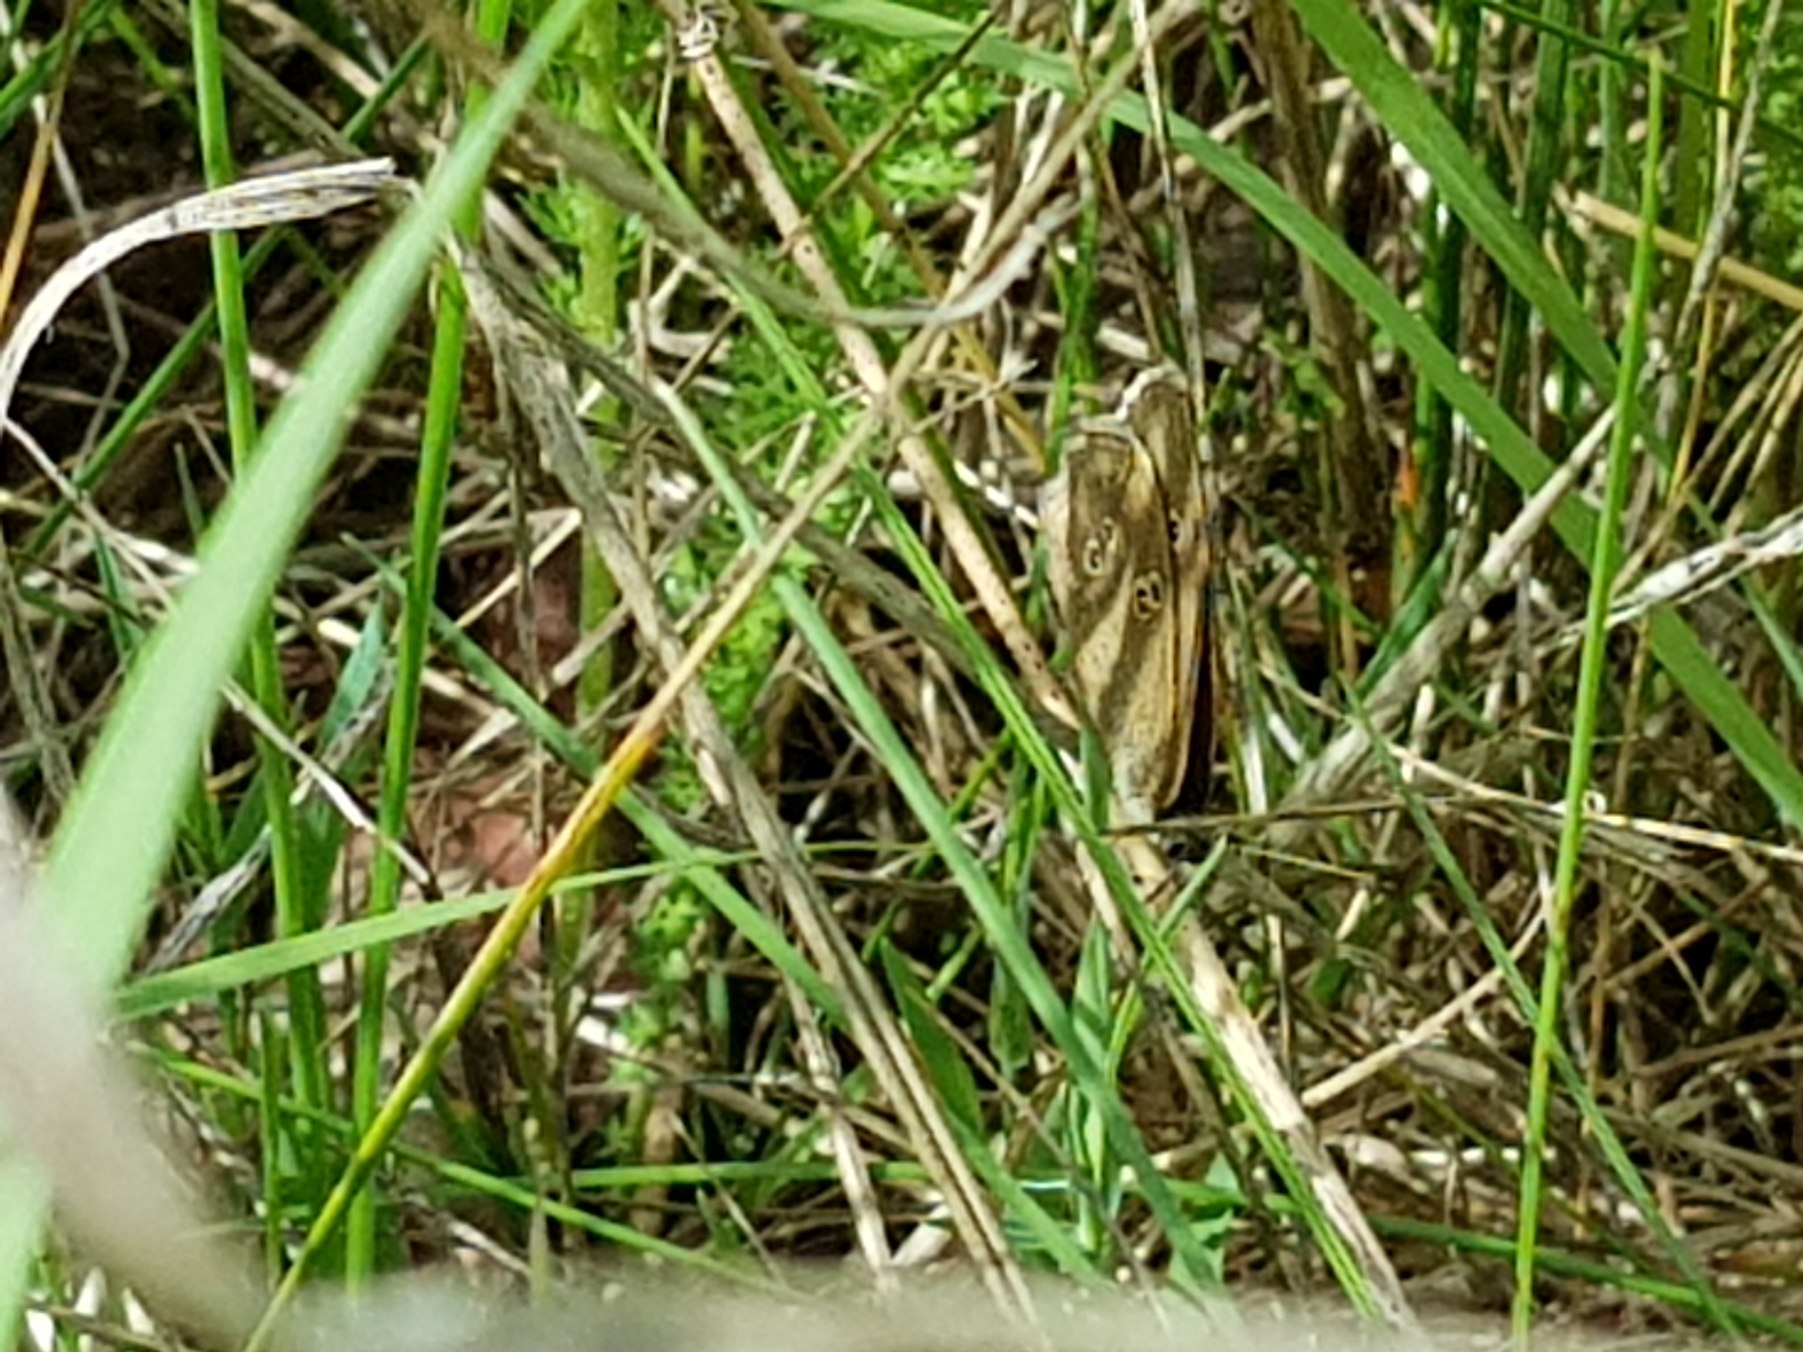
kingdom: Animalia
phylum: Arthropoda
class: Insecta
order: Lepidoptera
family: Nymphalidae
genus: Aphantopus
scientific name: Aphantopus hyperantus
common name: Engrandøje
